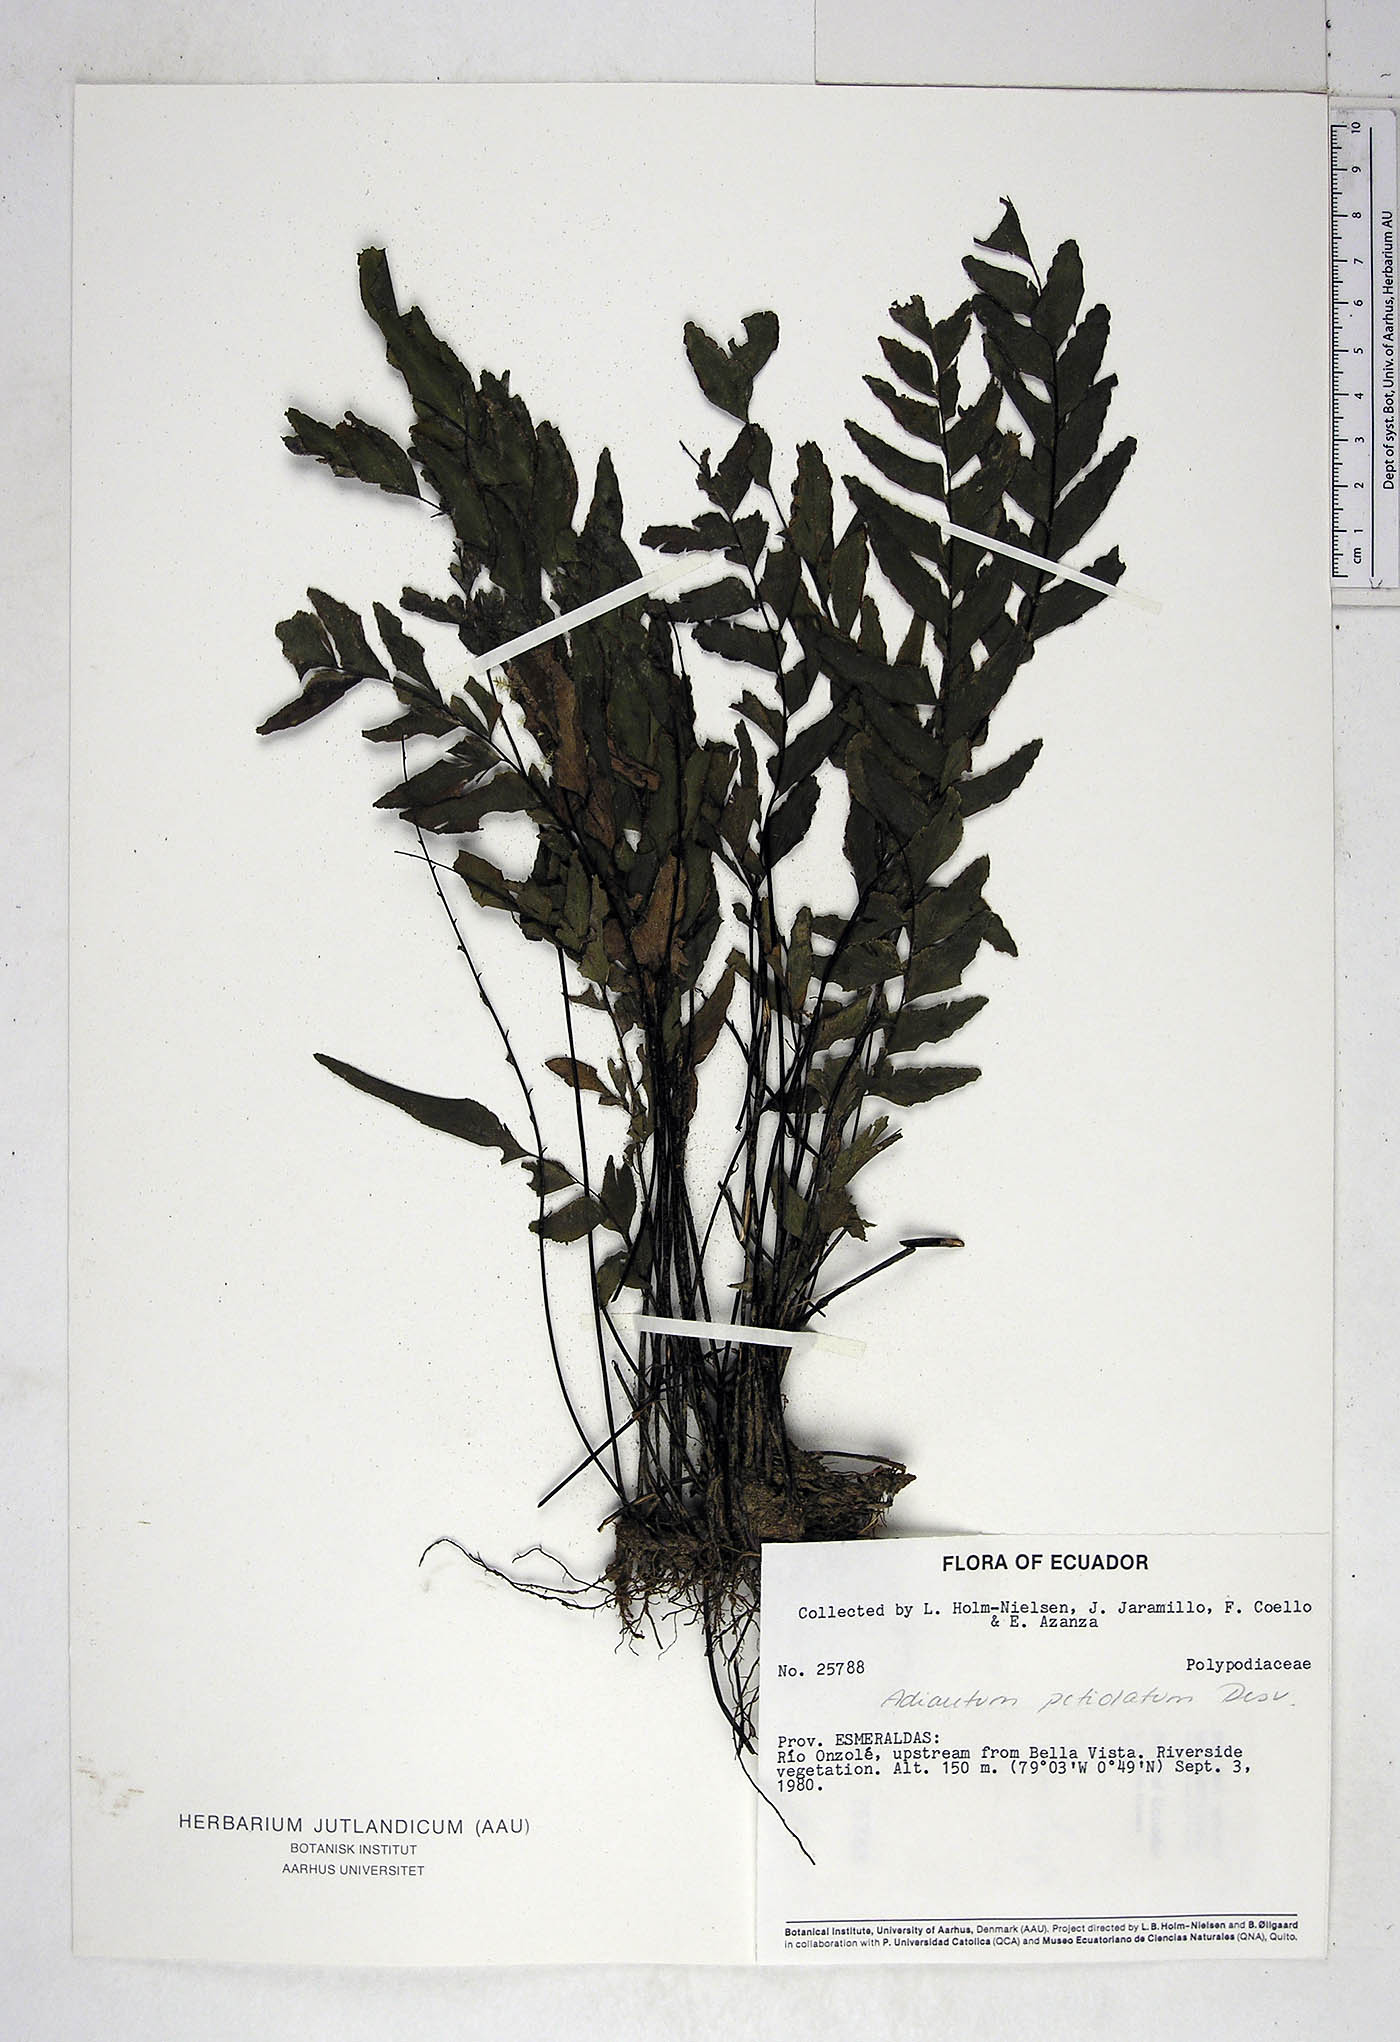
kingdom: Plantae
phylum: Tracheophyta
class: Polypodiopsida
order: Polypodiales
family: Pteridaceae
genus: Adiantum
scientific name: Adiantum petiolatum
